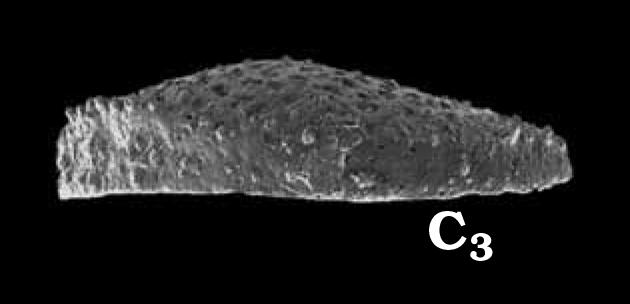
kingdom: Animalia
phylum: Arthropoda
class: Ostracoda
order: Palaeocopida
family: Oepikellidae
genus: Lavachilina
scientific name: Lavachilina evae
